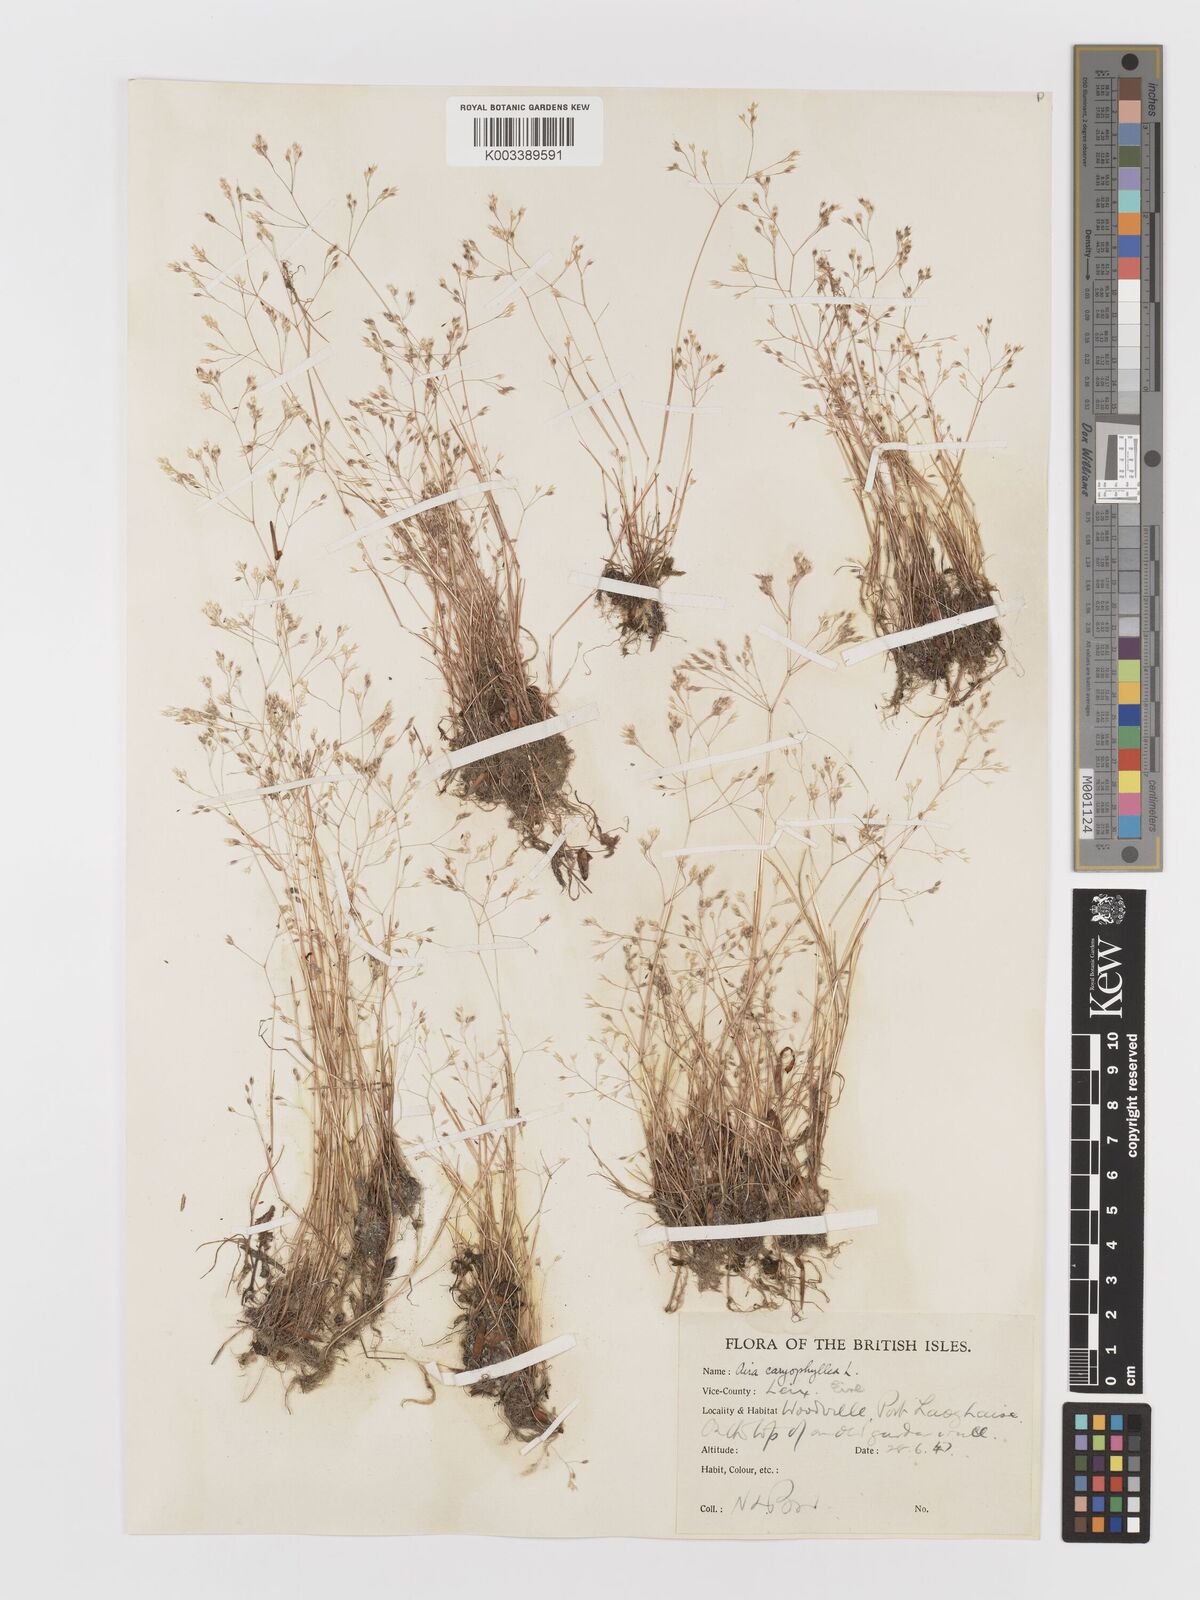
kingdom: Plantae
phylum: Tracheophyta
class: Liliopsida
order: Poales
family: Poaceae
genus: Aira
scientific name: Aira caryophyllea
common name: Silver hairgrass
